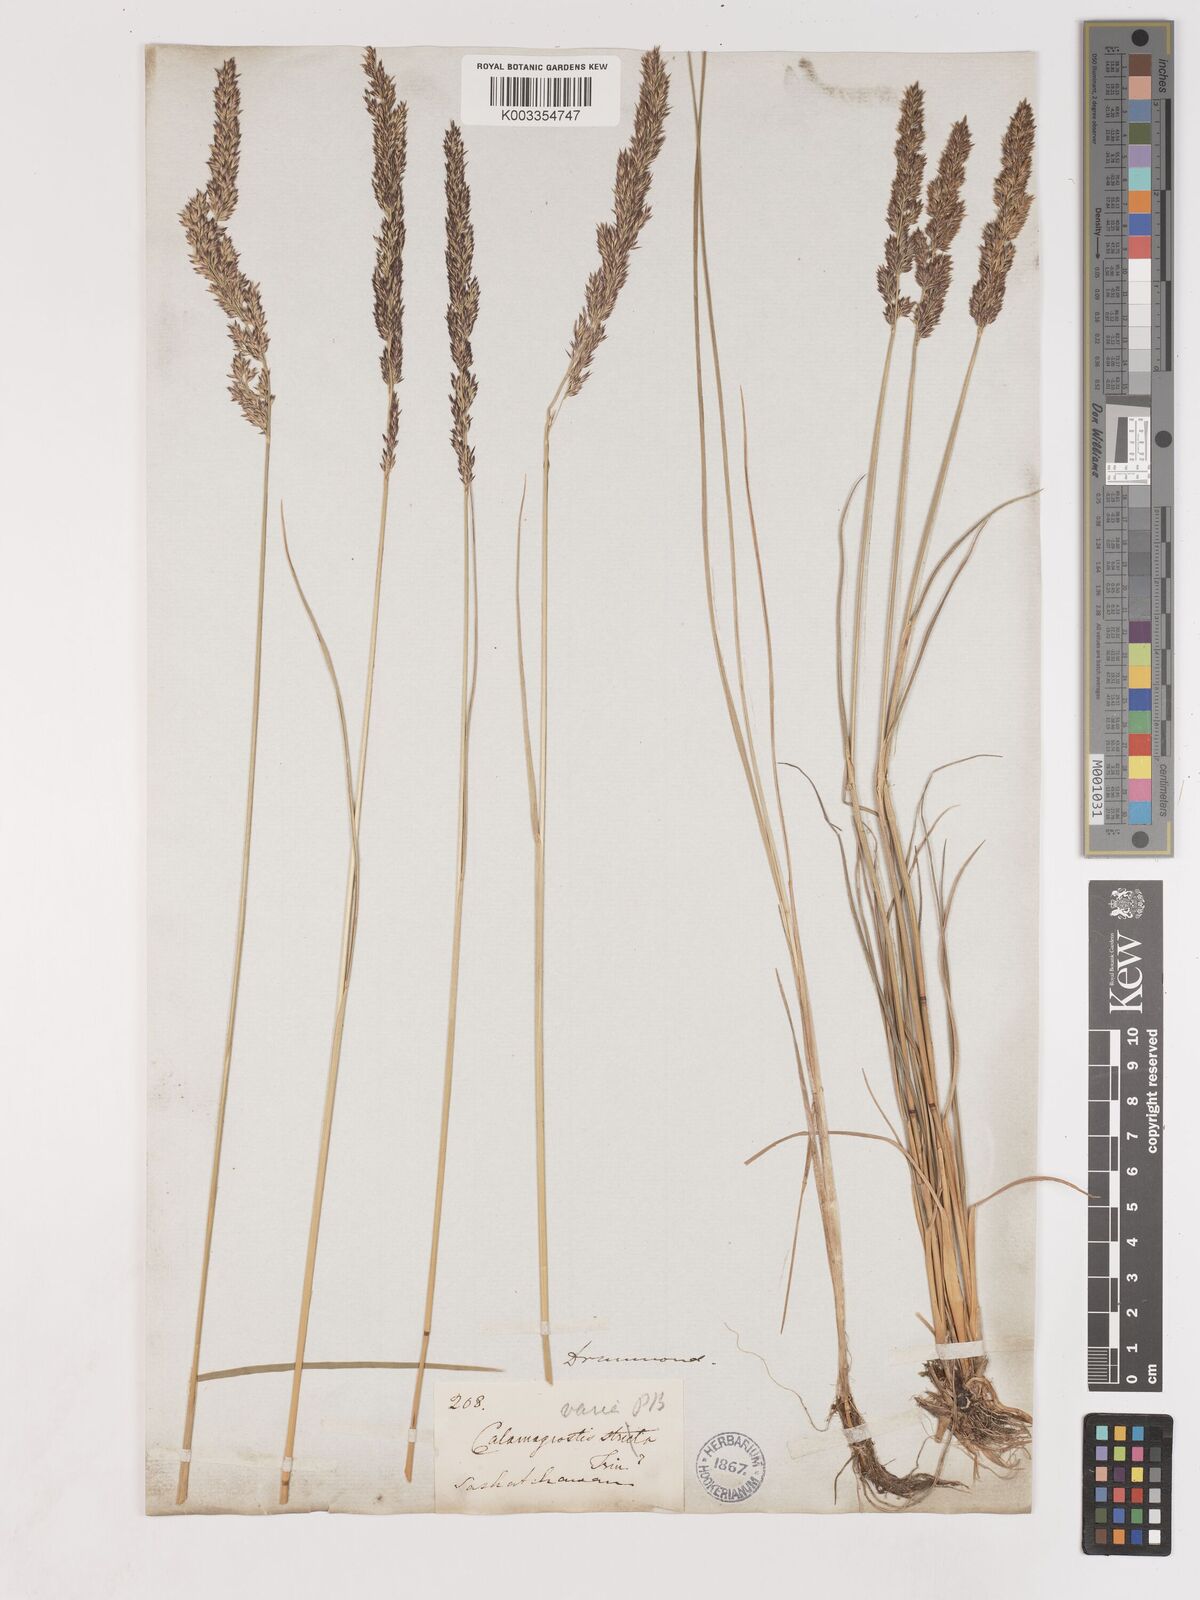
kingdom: Plantae
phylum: Tracheophyta
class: Liliopsida
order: Poales
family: Poaceae
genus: Cinnagrostis
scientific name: Cinnagrostis recta
